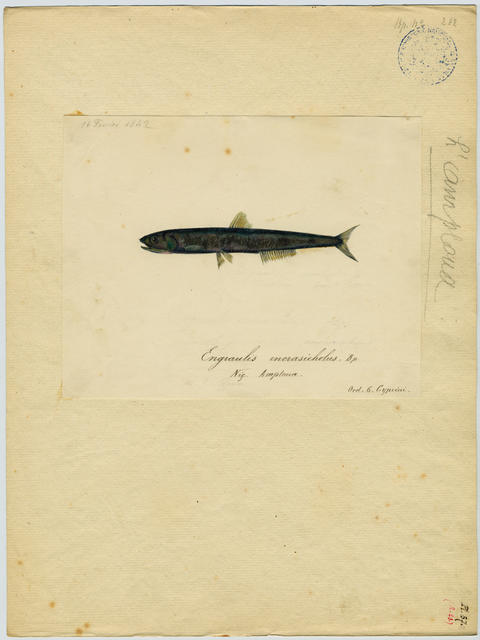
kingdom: Animalia
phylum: Chordata
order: Clupeiformes
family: Engraulidae
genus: Engraulis
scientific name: Engraulis encrasicolus
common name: European anchovy
